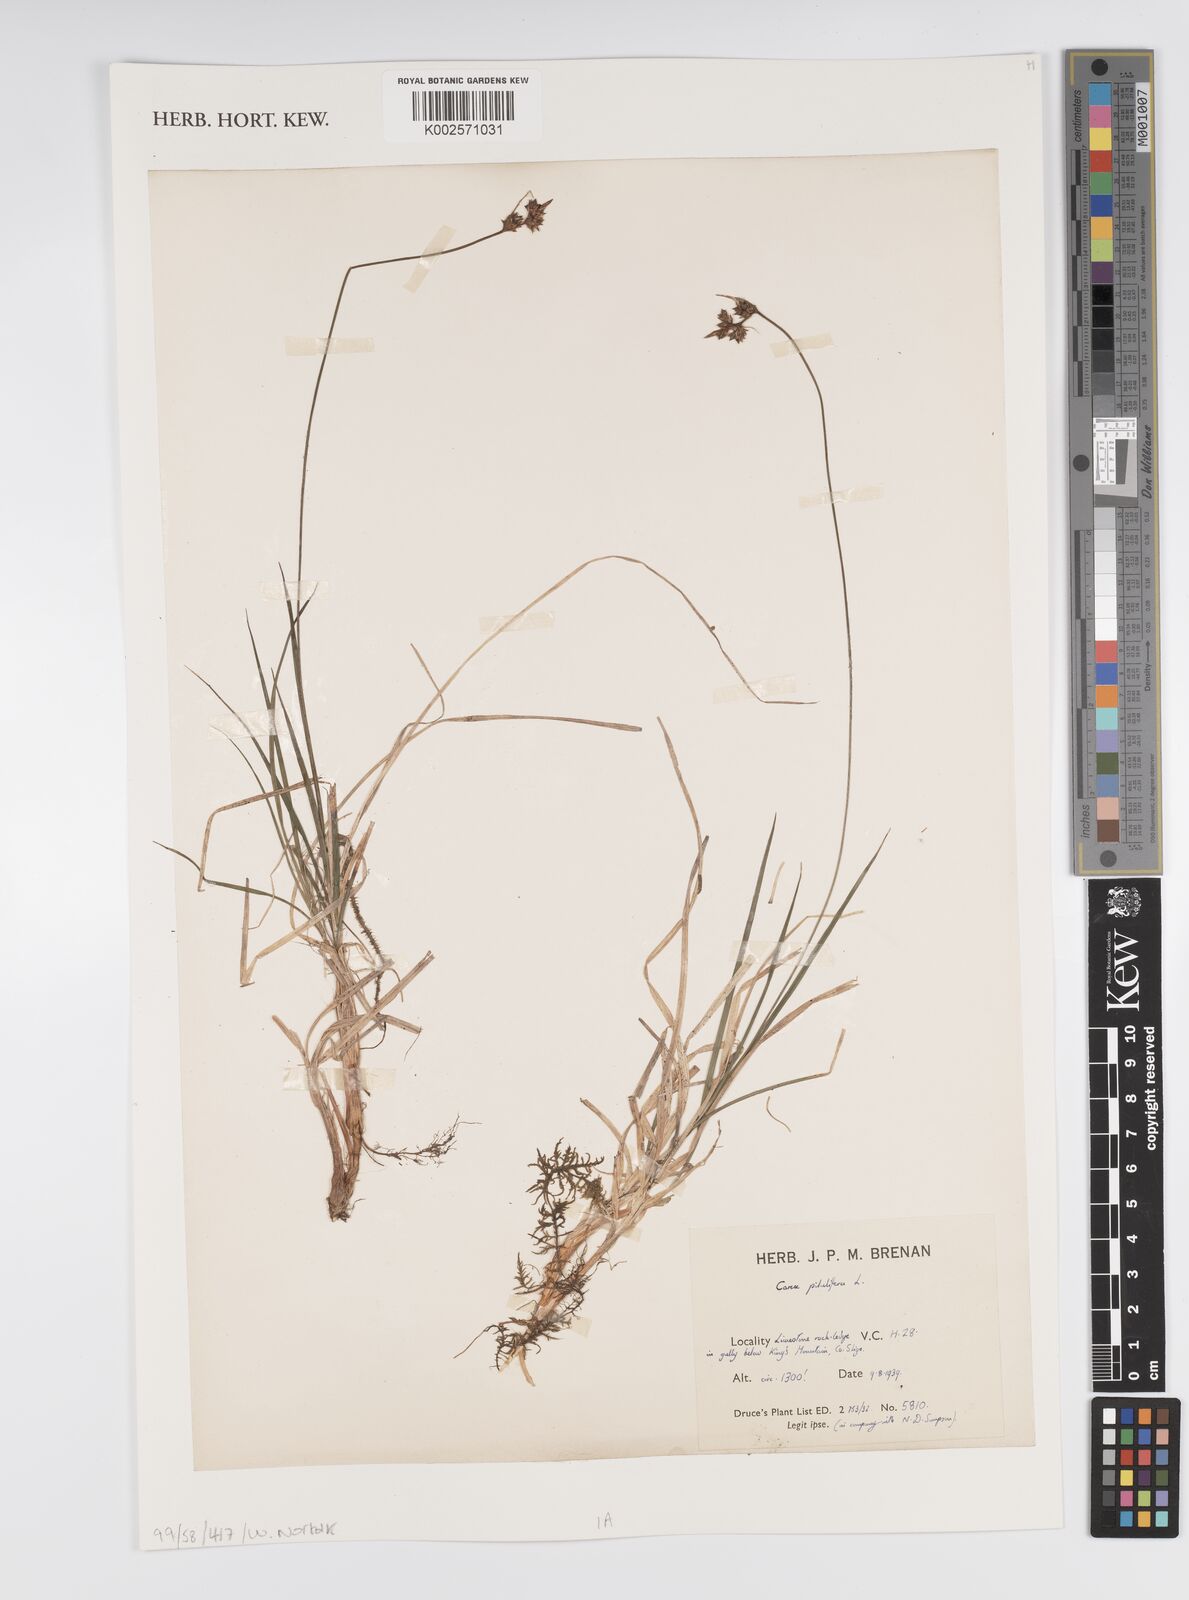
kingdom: Plantae
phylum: Tracheophyta
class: Liliopsida
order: Poales
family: Cyperaceae
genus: Carex
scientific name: Carex pilulifera
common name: Pill sedge
